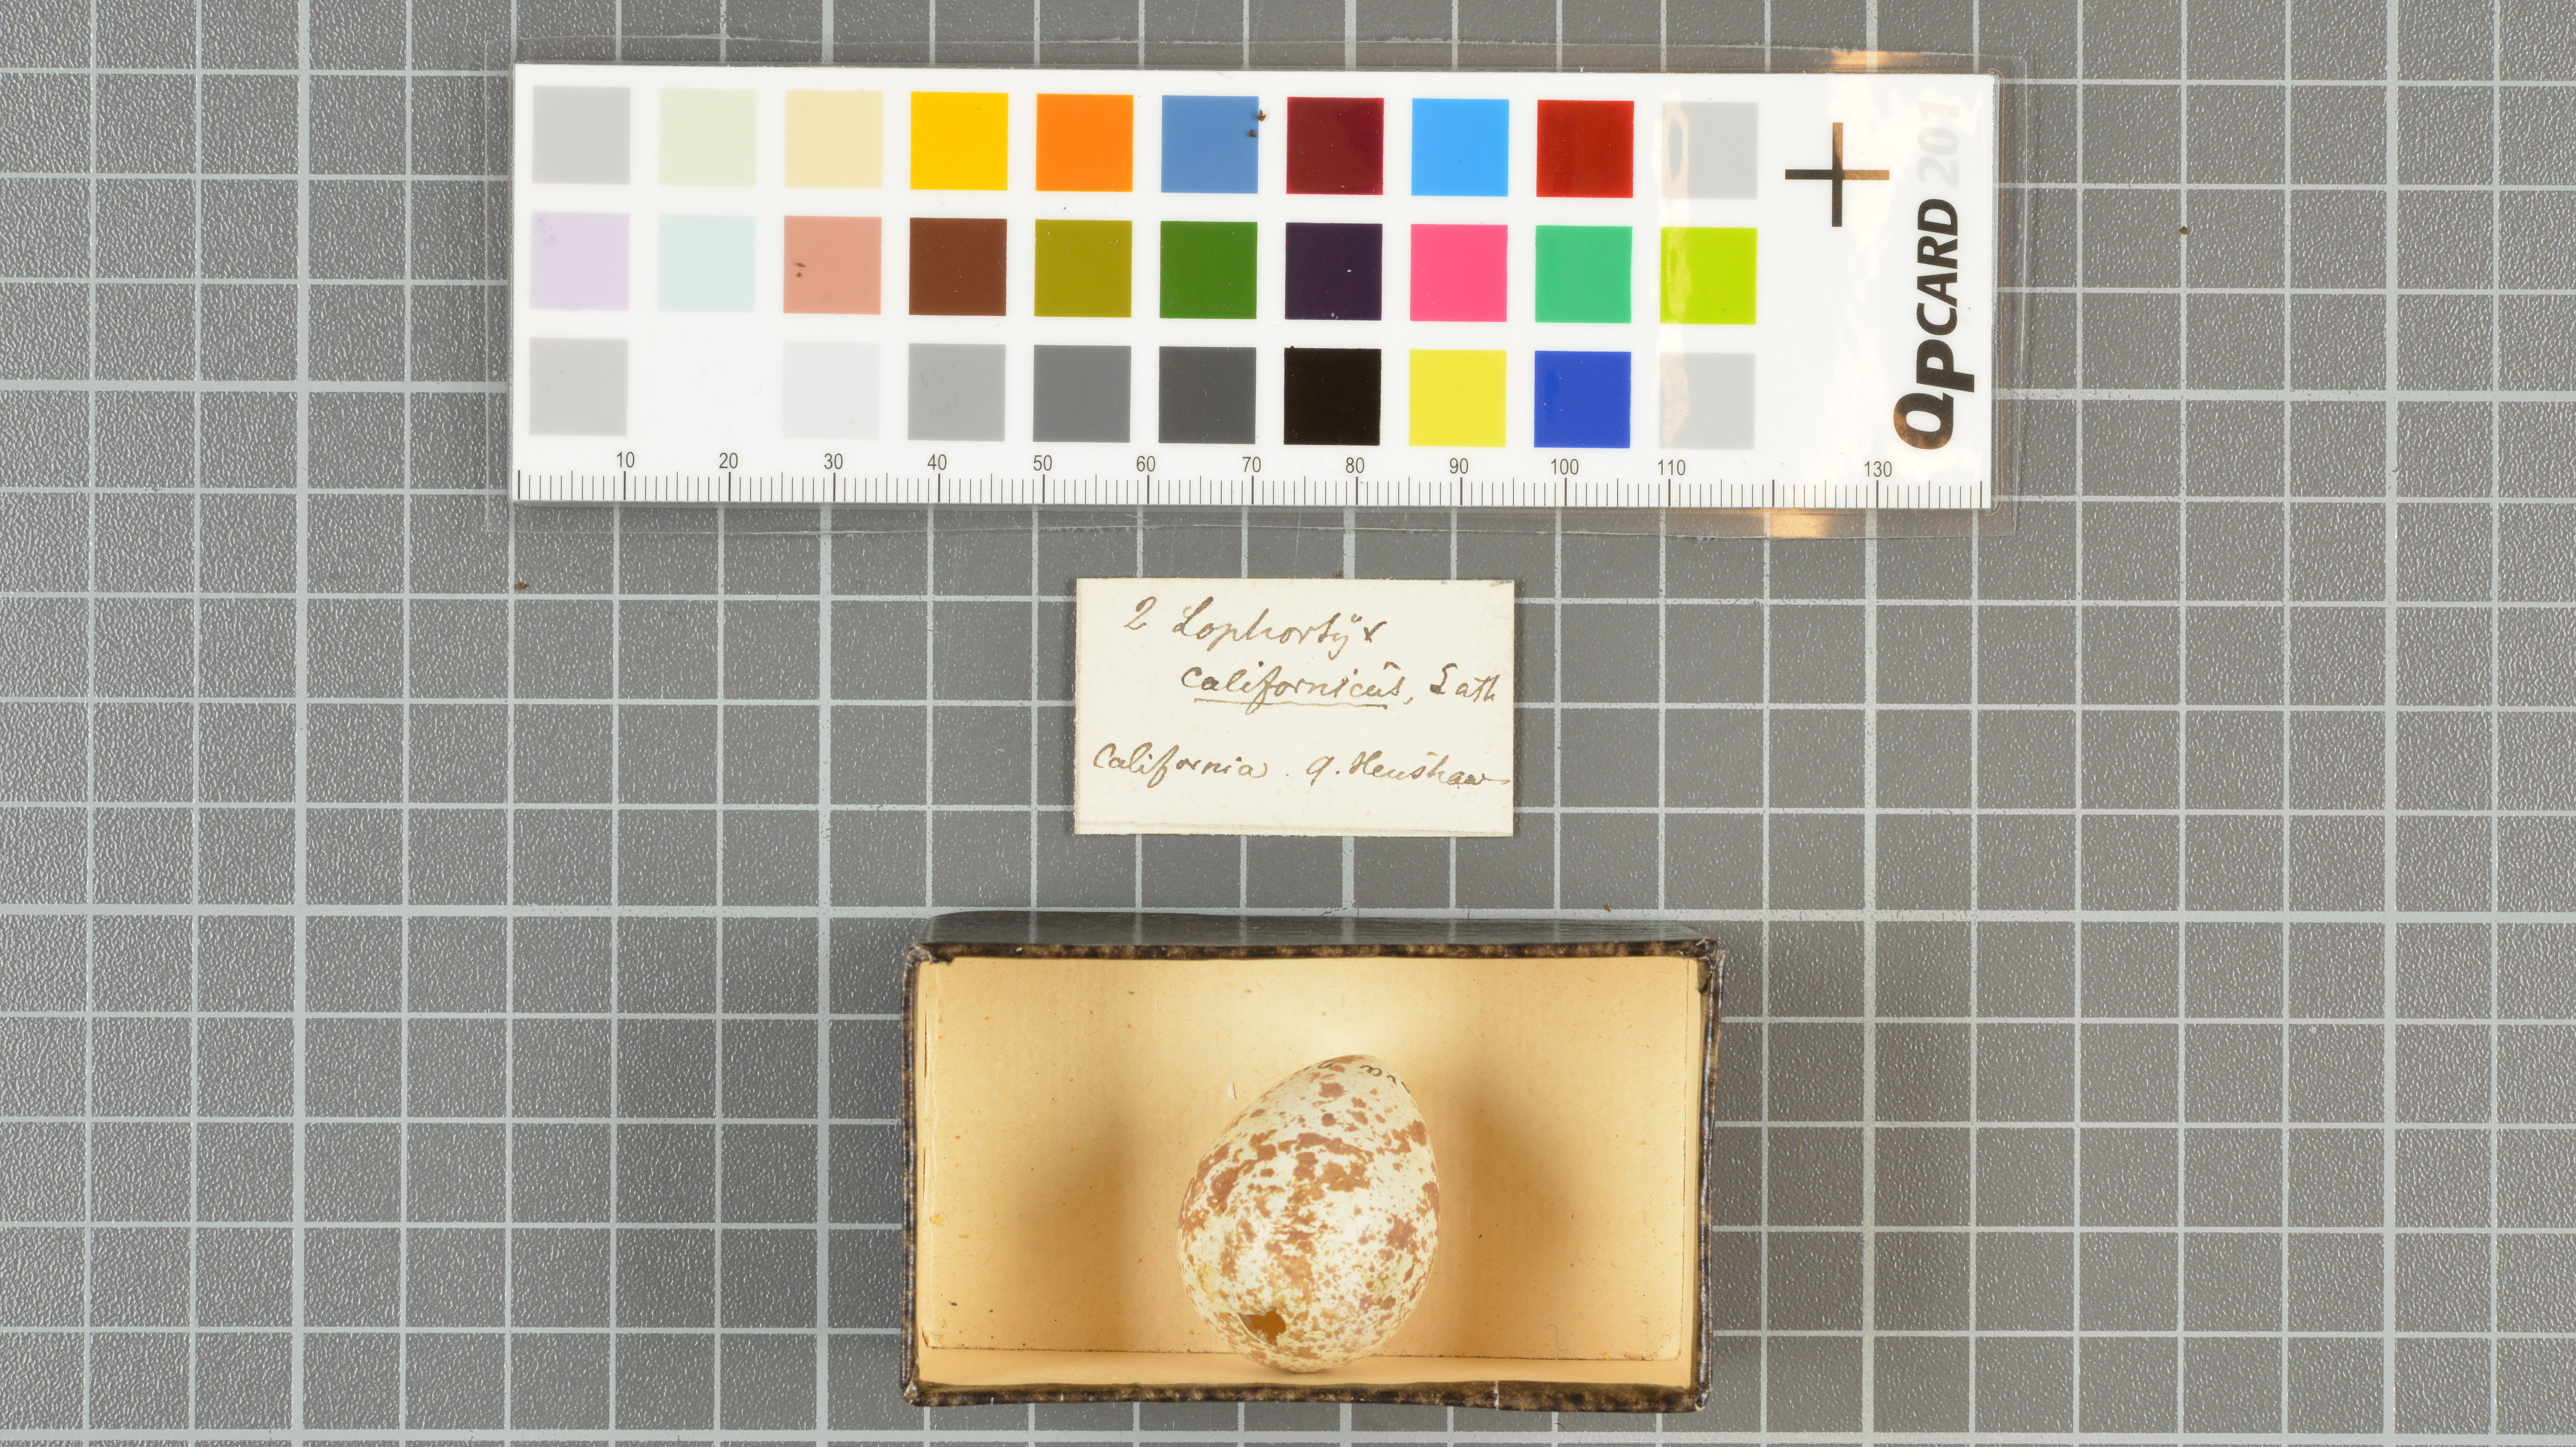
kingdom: Animalia
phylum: Chordata
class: Aves
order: Galliformes
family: Odontophoridae
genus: Callipepla
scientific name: Callipepla californica
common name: California quail
